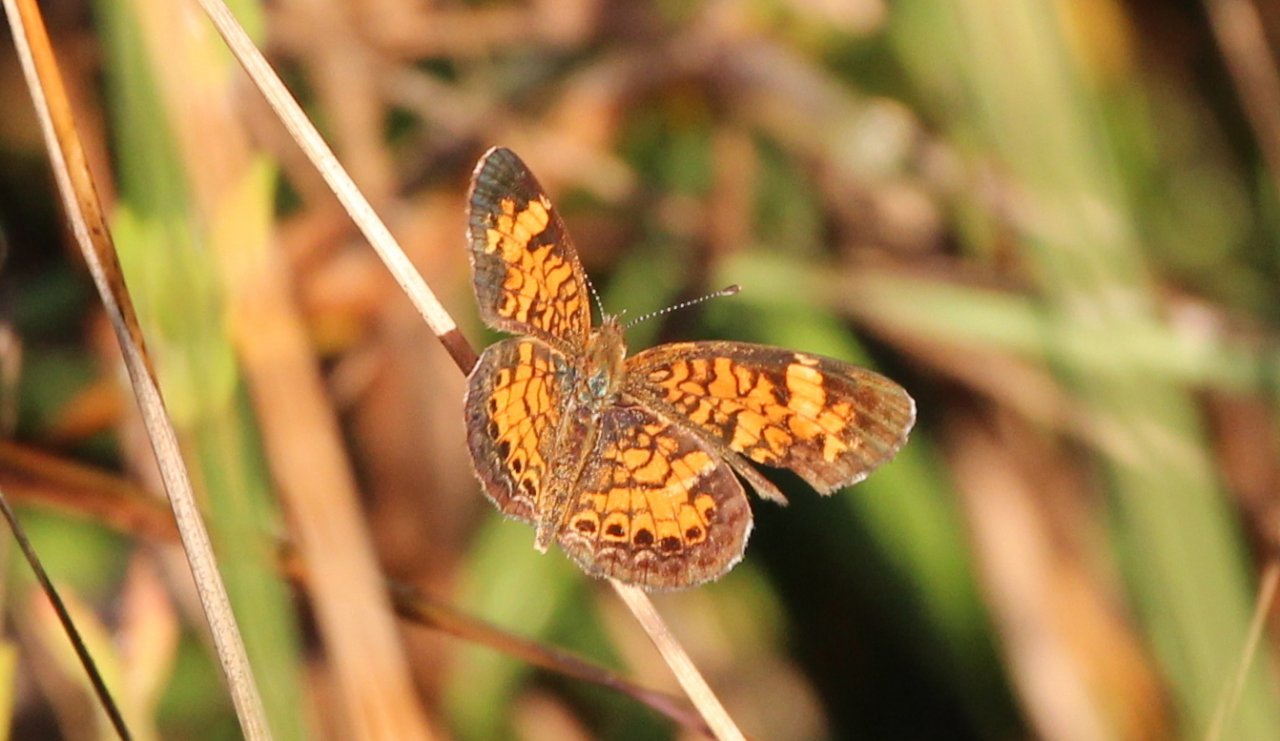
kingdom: Animalia
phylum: Arthropoda
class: Insecta
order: Lepidoptera
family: Nymphalidae
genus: Phyciodes
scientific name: Phyciodes tharos
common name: Pearl Crescent
